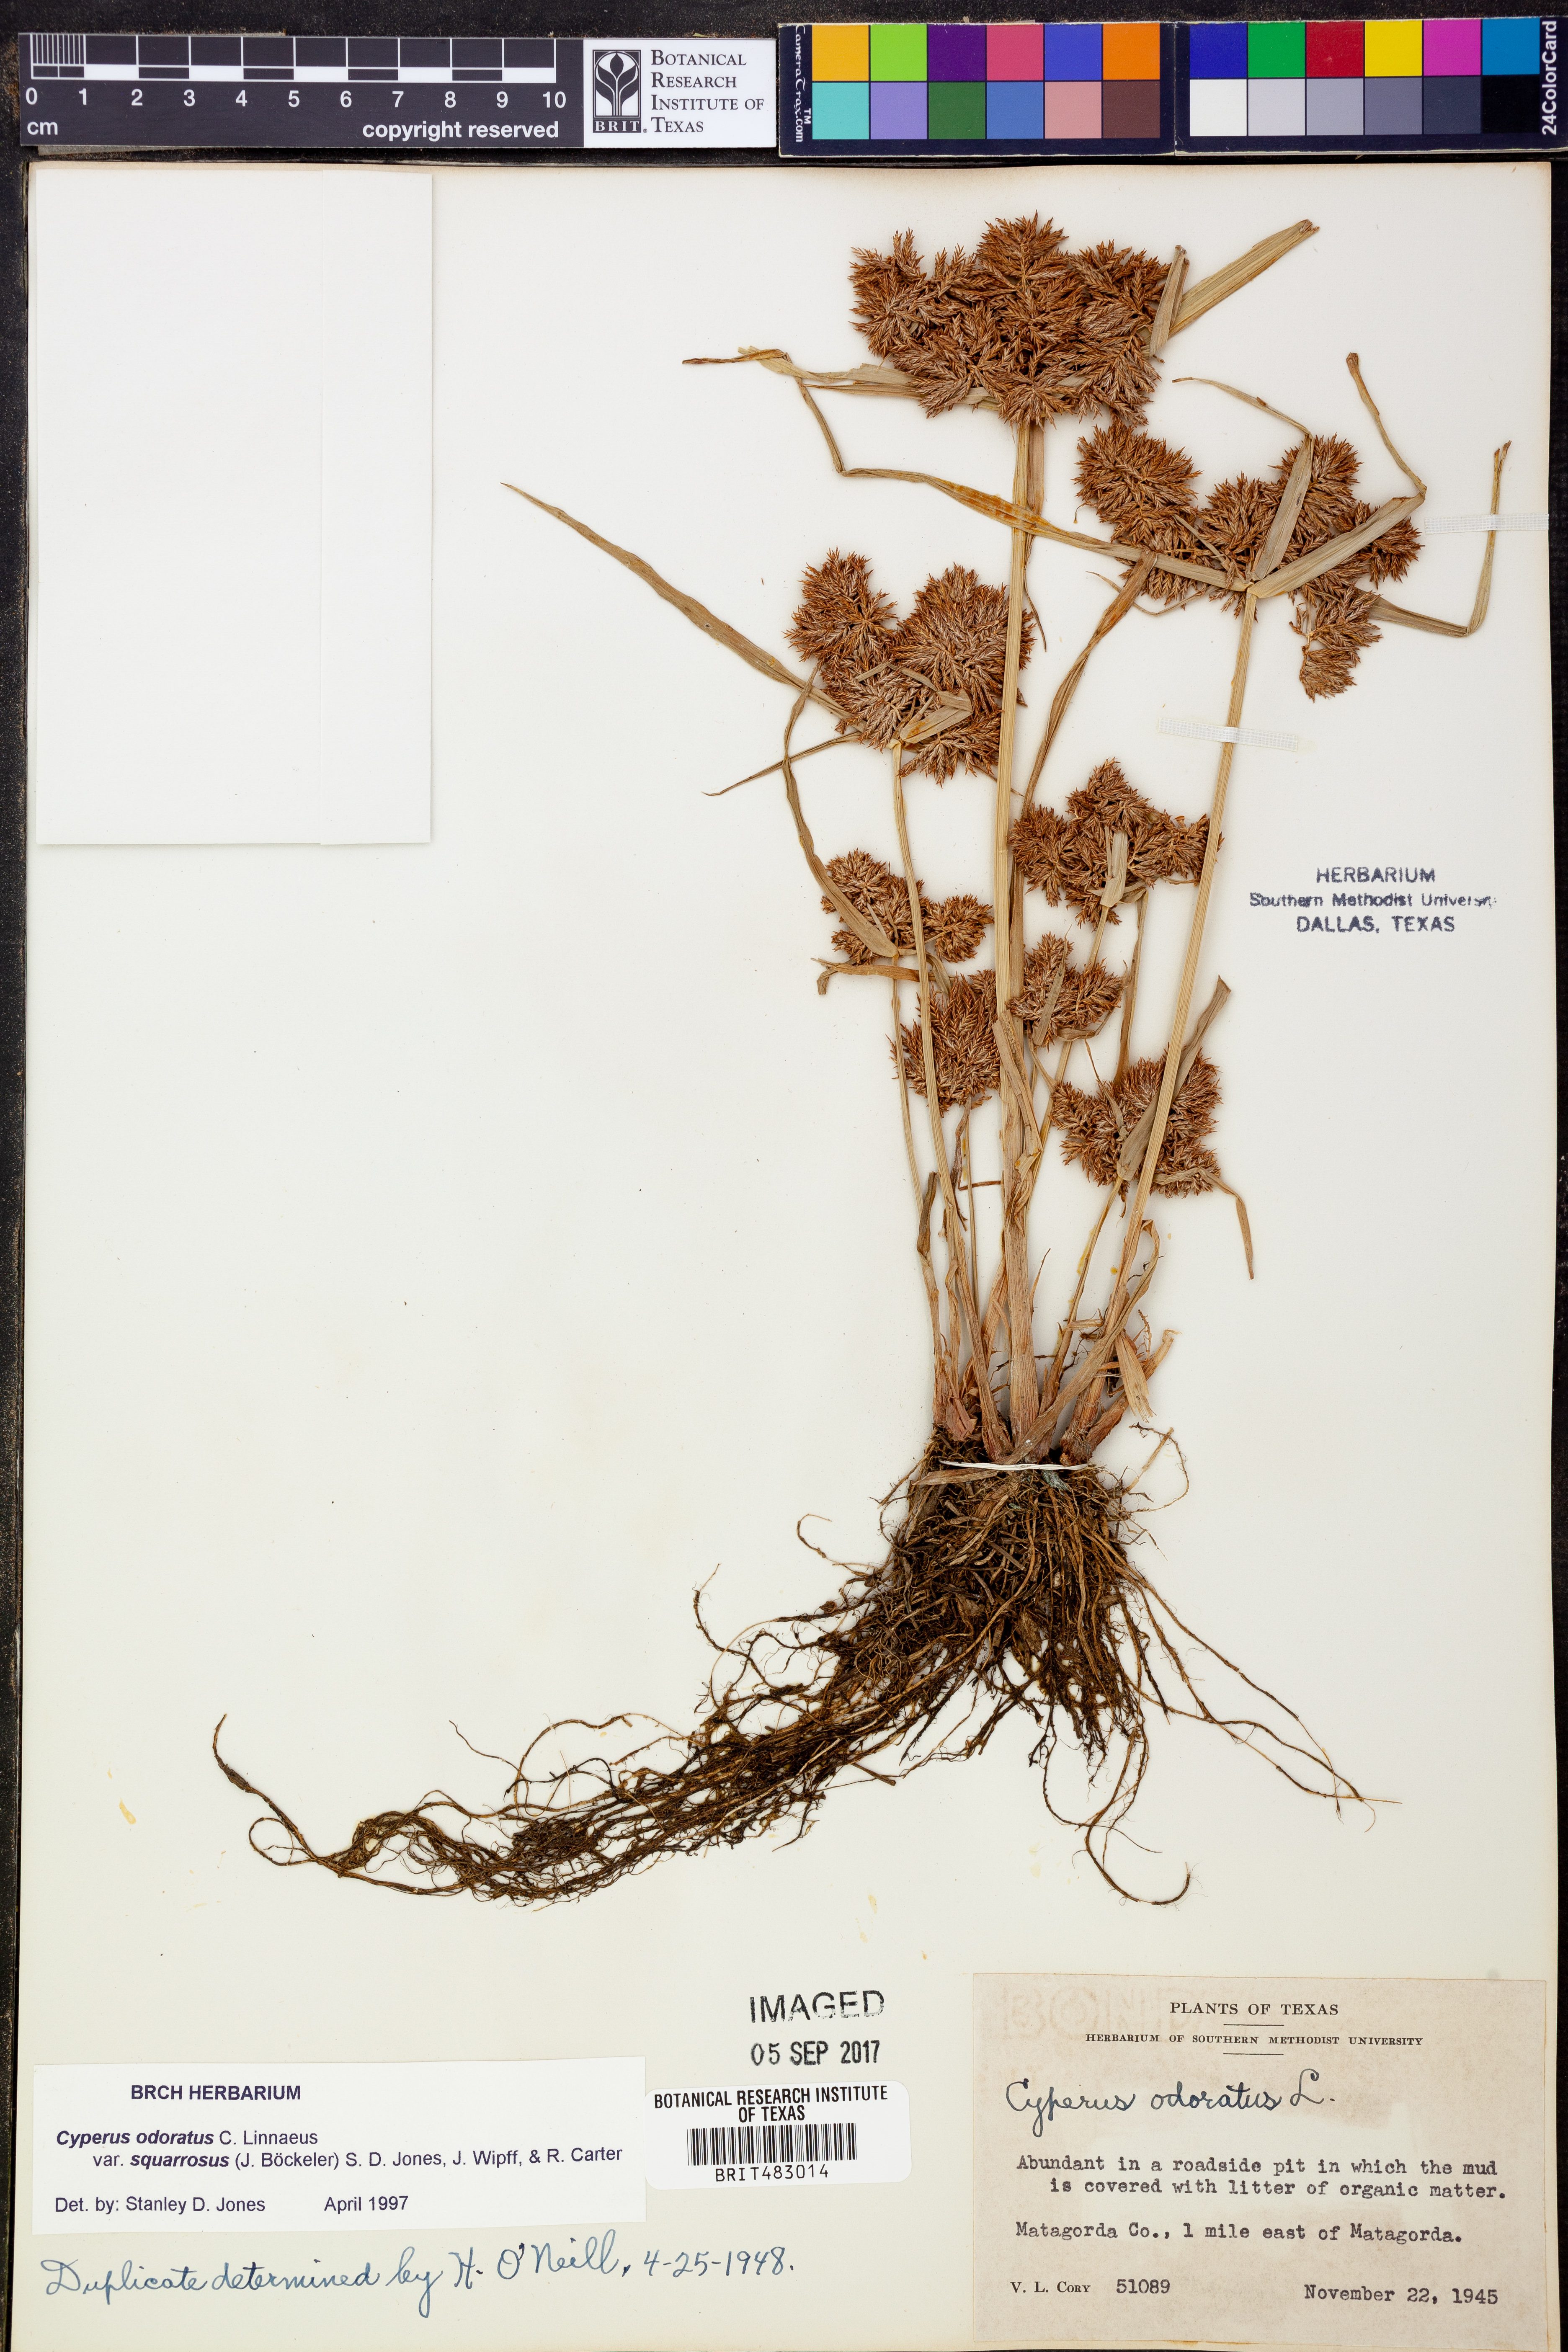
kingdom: Plantae
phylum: Tracheophyta
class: Liliopsida
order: Poales
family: Cyperaceae
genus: Cyperus
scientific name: Cyperus odoratus
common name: Fragrant flatsedge
